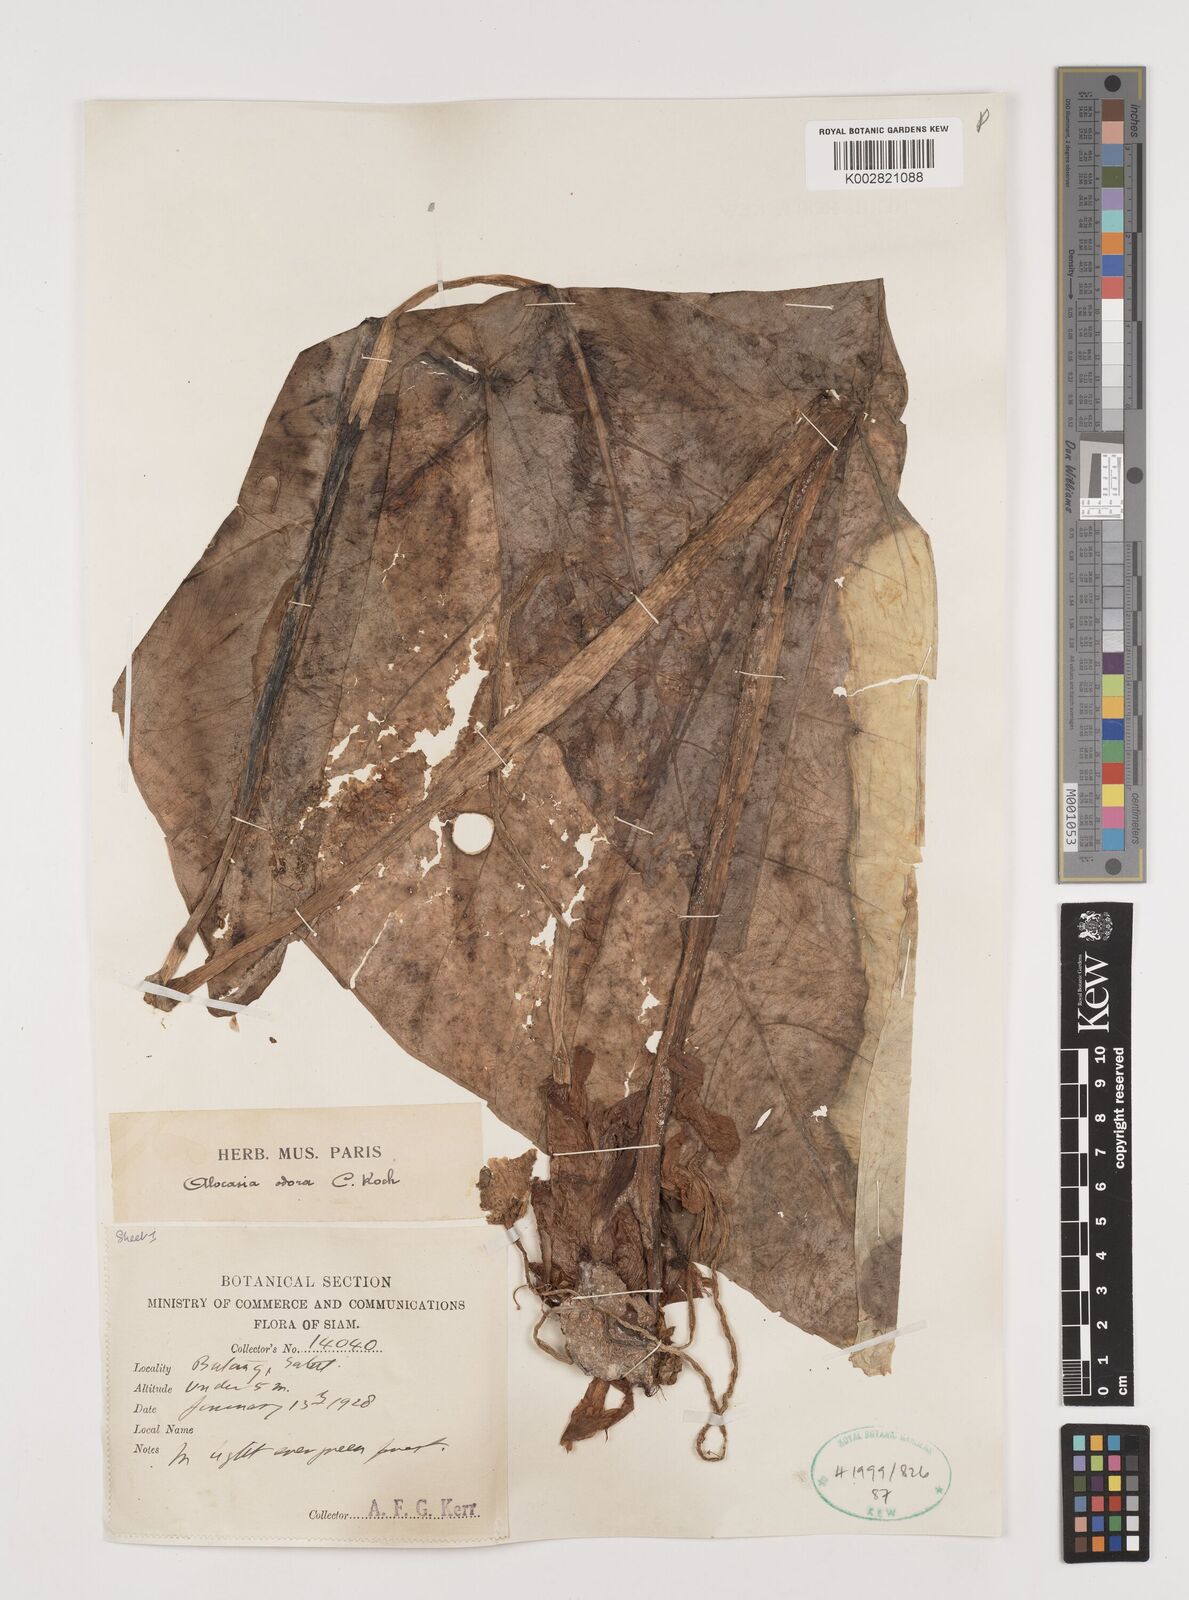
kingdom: Plantae
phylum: Tracheophyta
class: Liliopsida
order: Alismatales
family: Araceae
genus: Alocasia
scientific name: Alocasia
